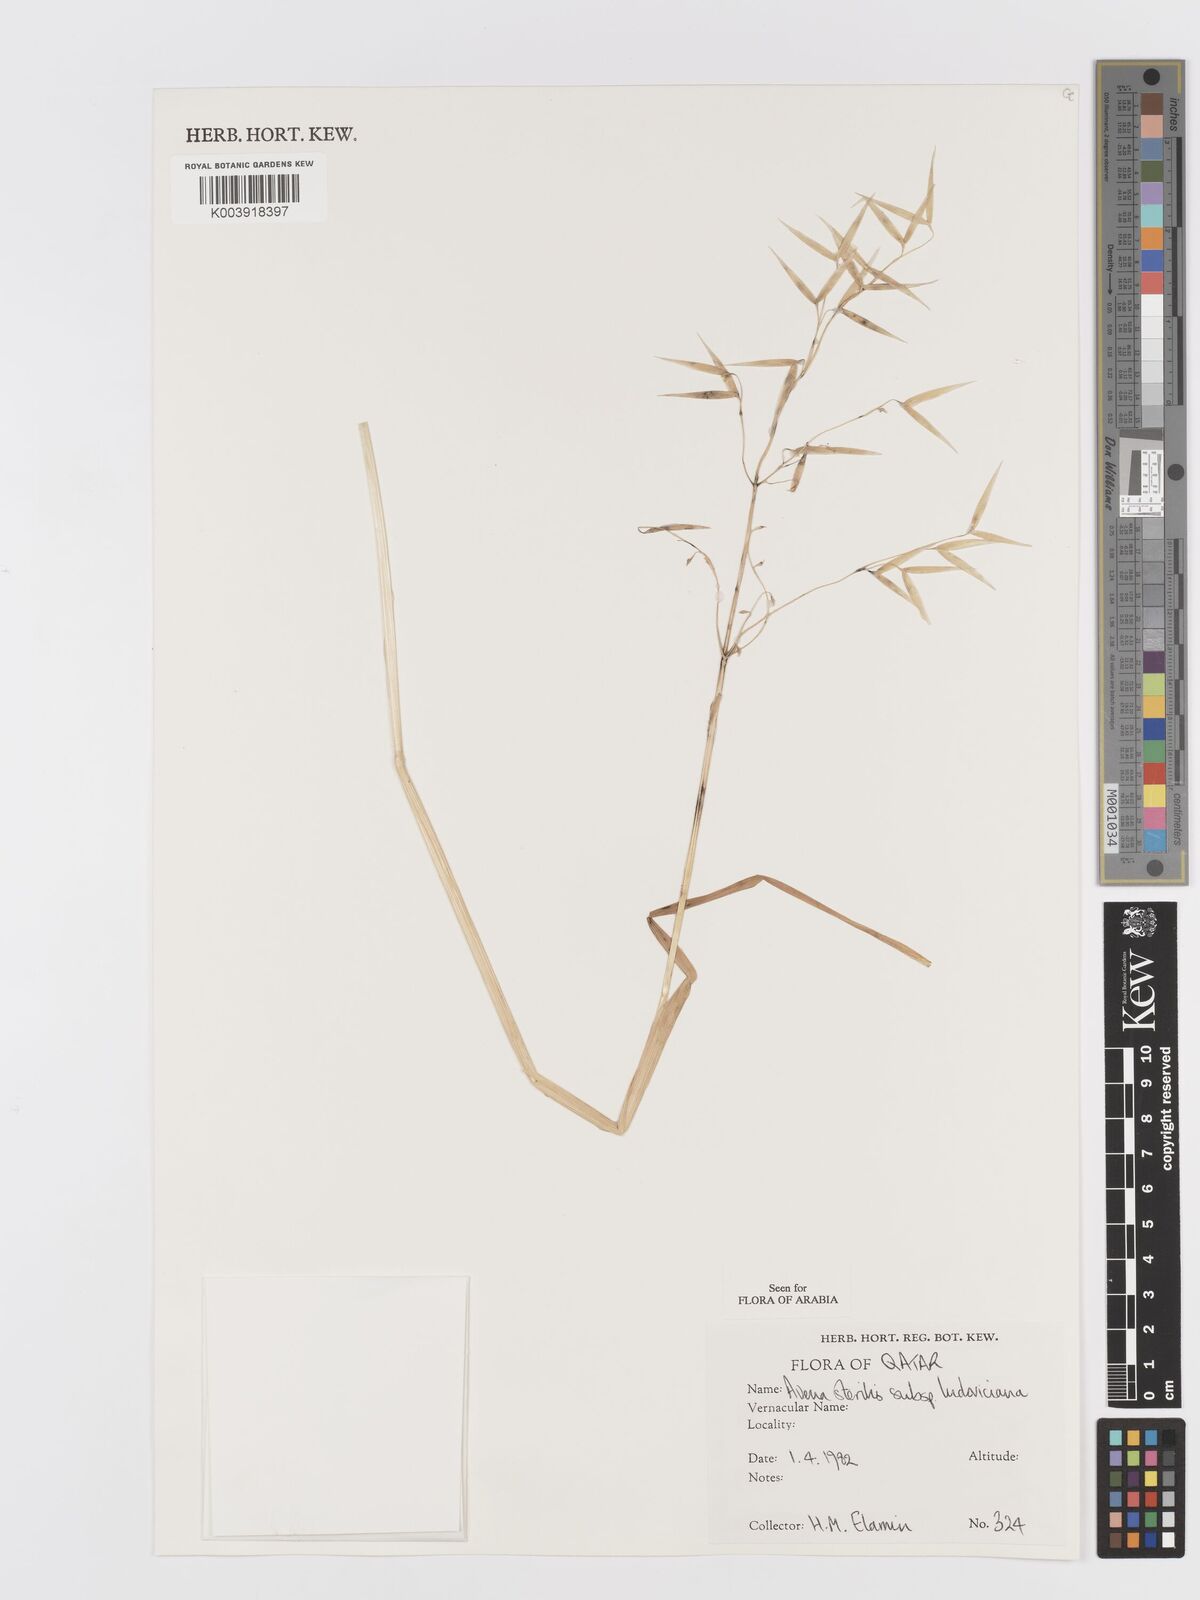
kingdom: Plantae
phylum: Tracheophyta
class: Liliopsida
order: Poales
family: Poaceae
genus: Avena
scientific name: Avena sterilis
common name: Animated oat
